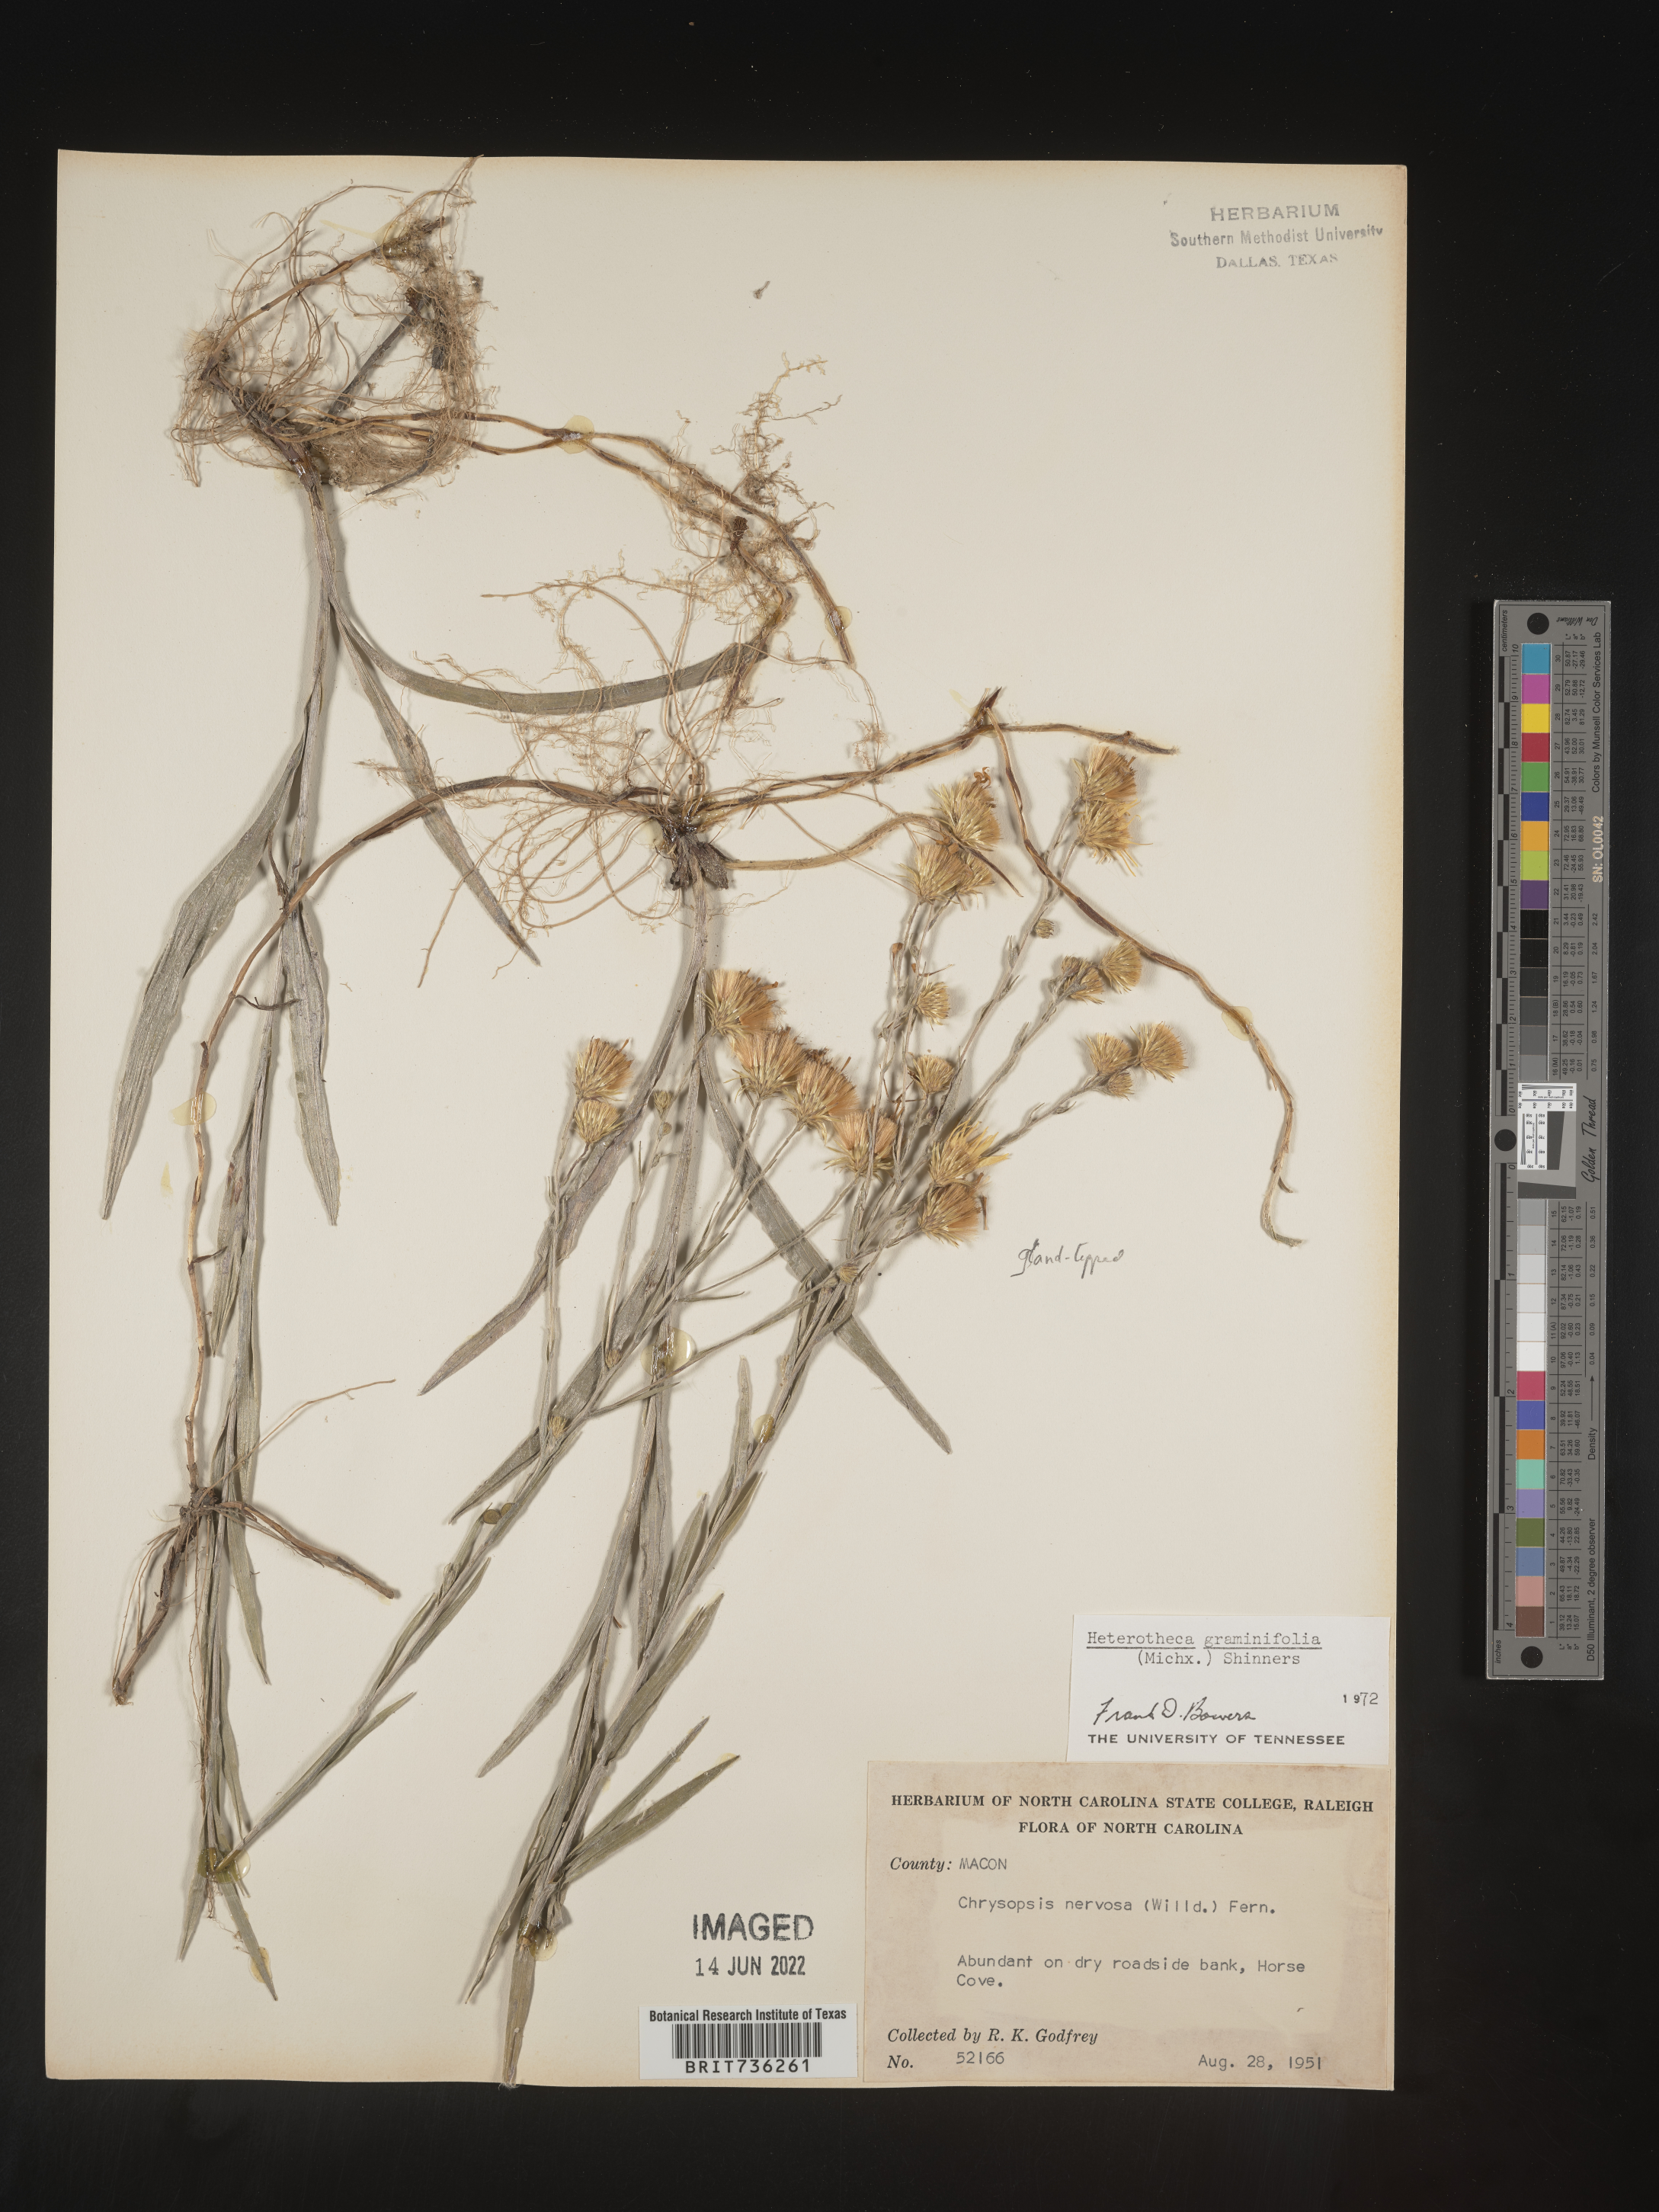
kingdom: Plantae
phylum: Tracheophyta
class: Magnoliopsida
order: Asterales
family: Asteraceae
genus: Pityopsis
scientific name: Pityopsis graminifolia
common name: Grass-leaf golden-aster
